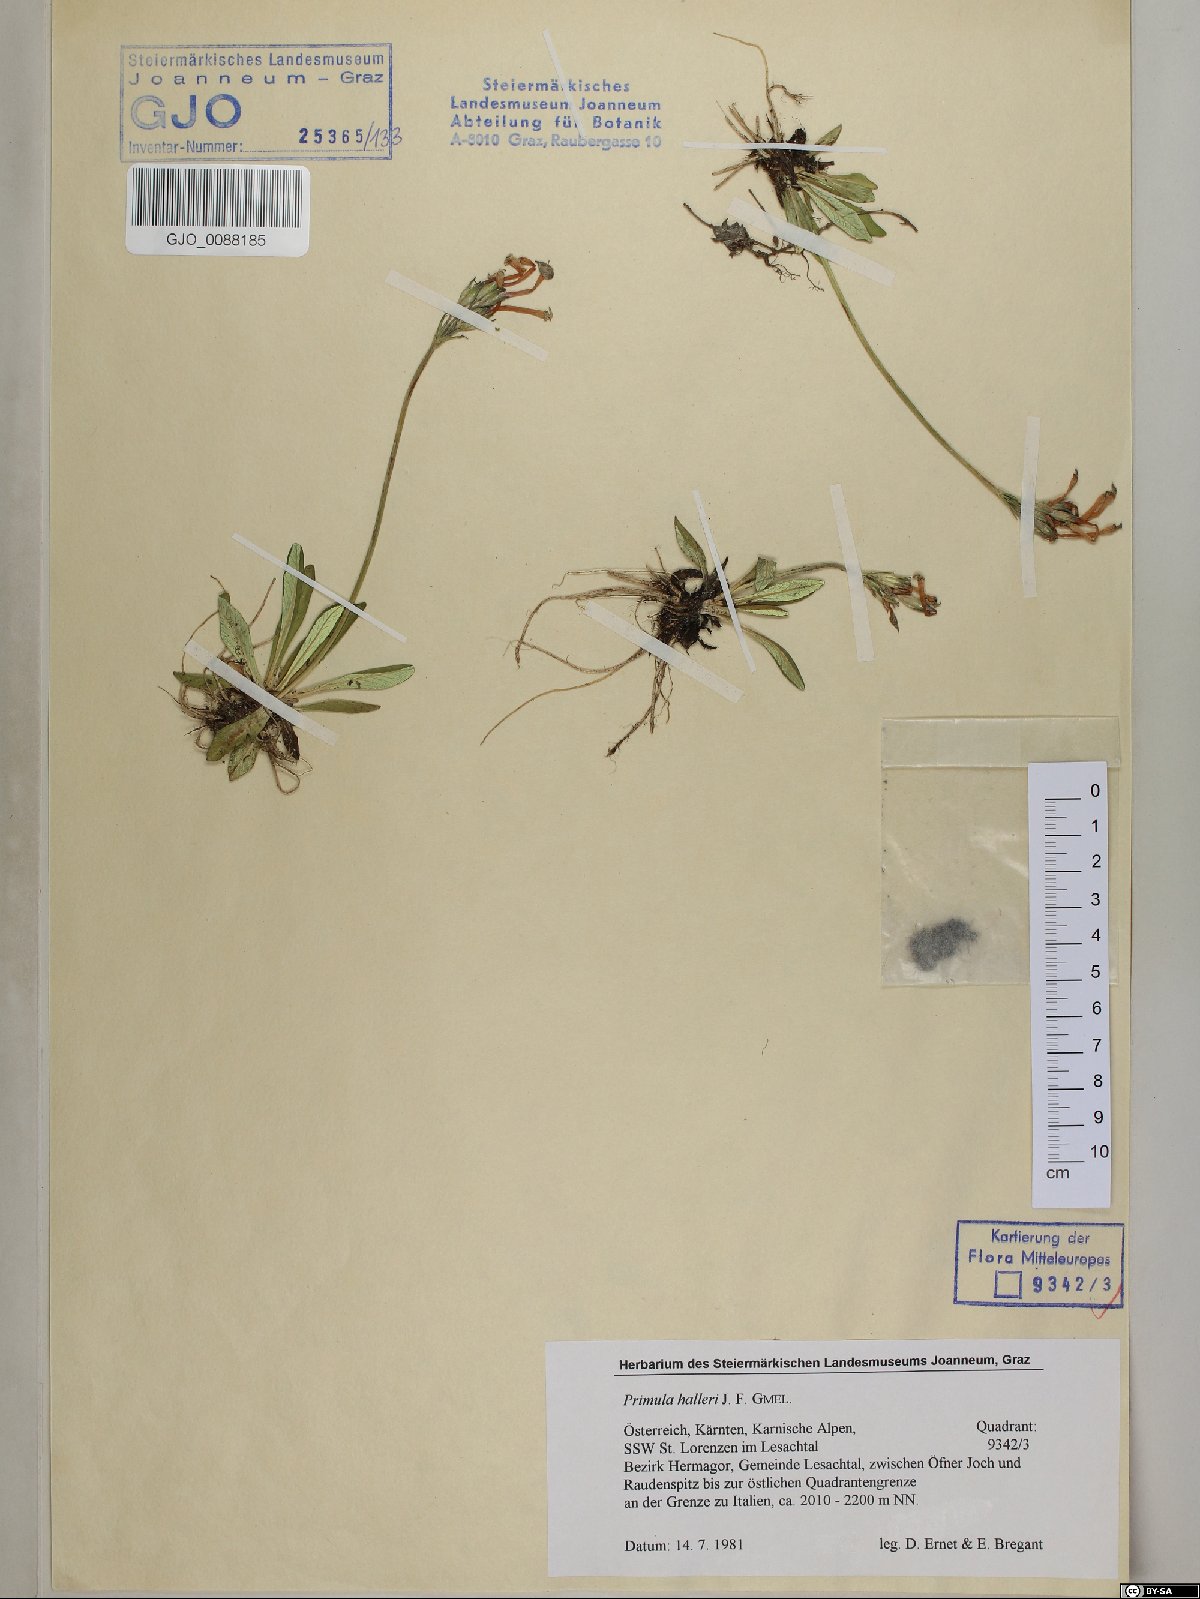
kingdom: Plantae
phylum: Tracheophyta
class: Magnoliopsida
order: Ericales
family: Primulaceae
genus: Primula
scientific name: Primula halleri
